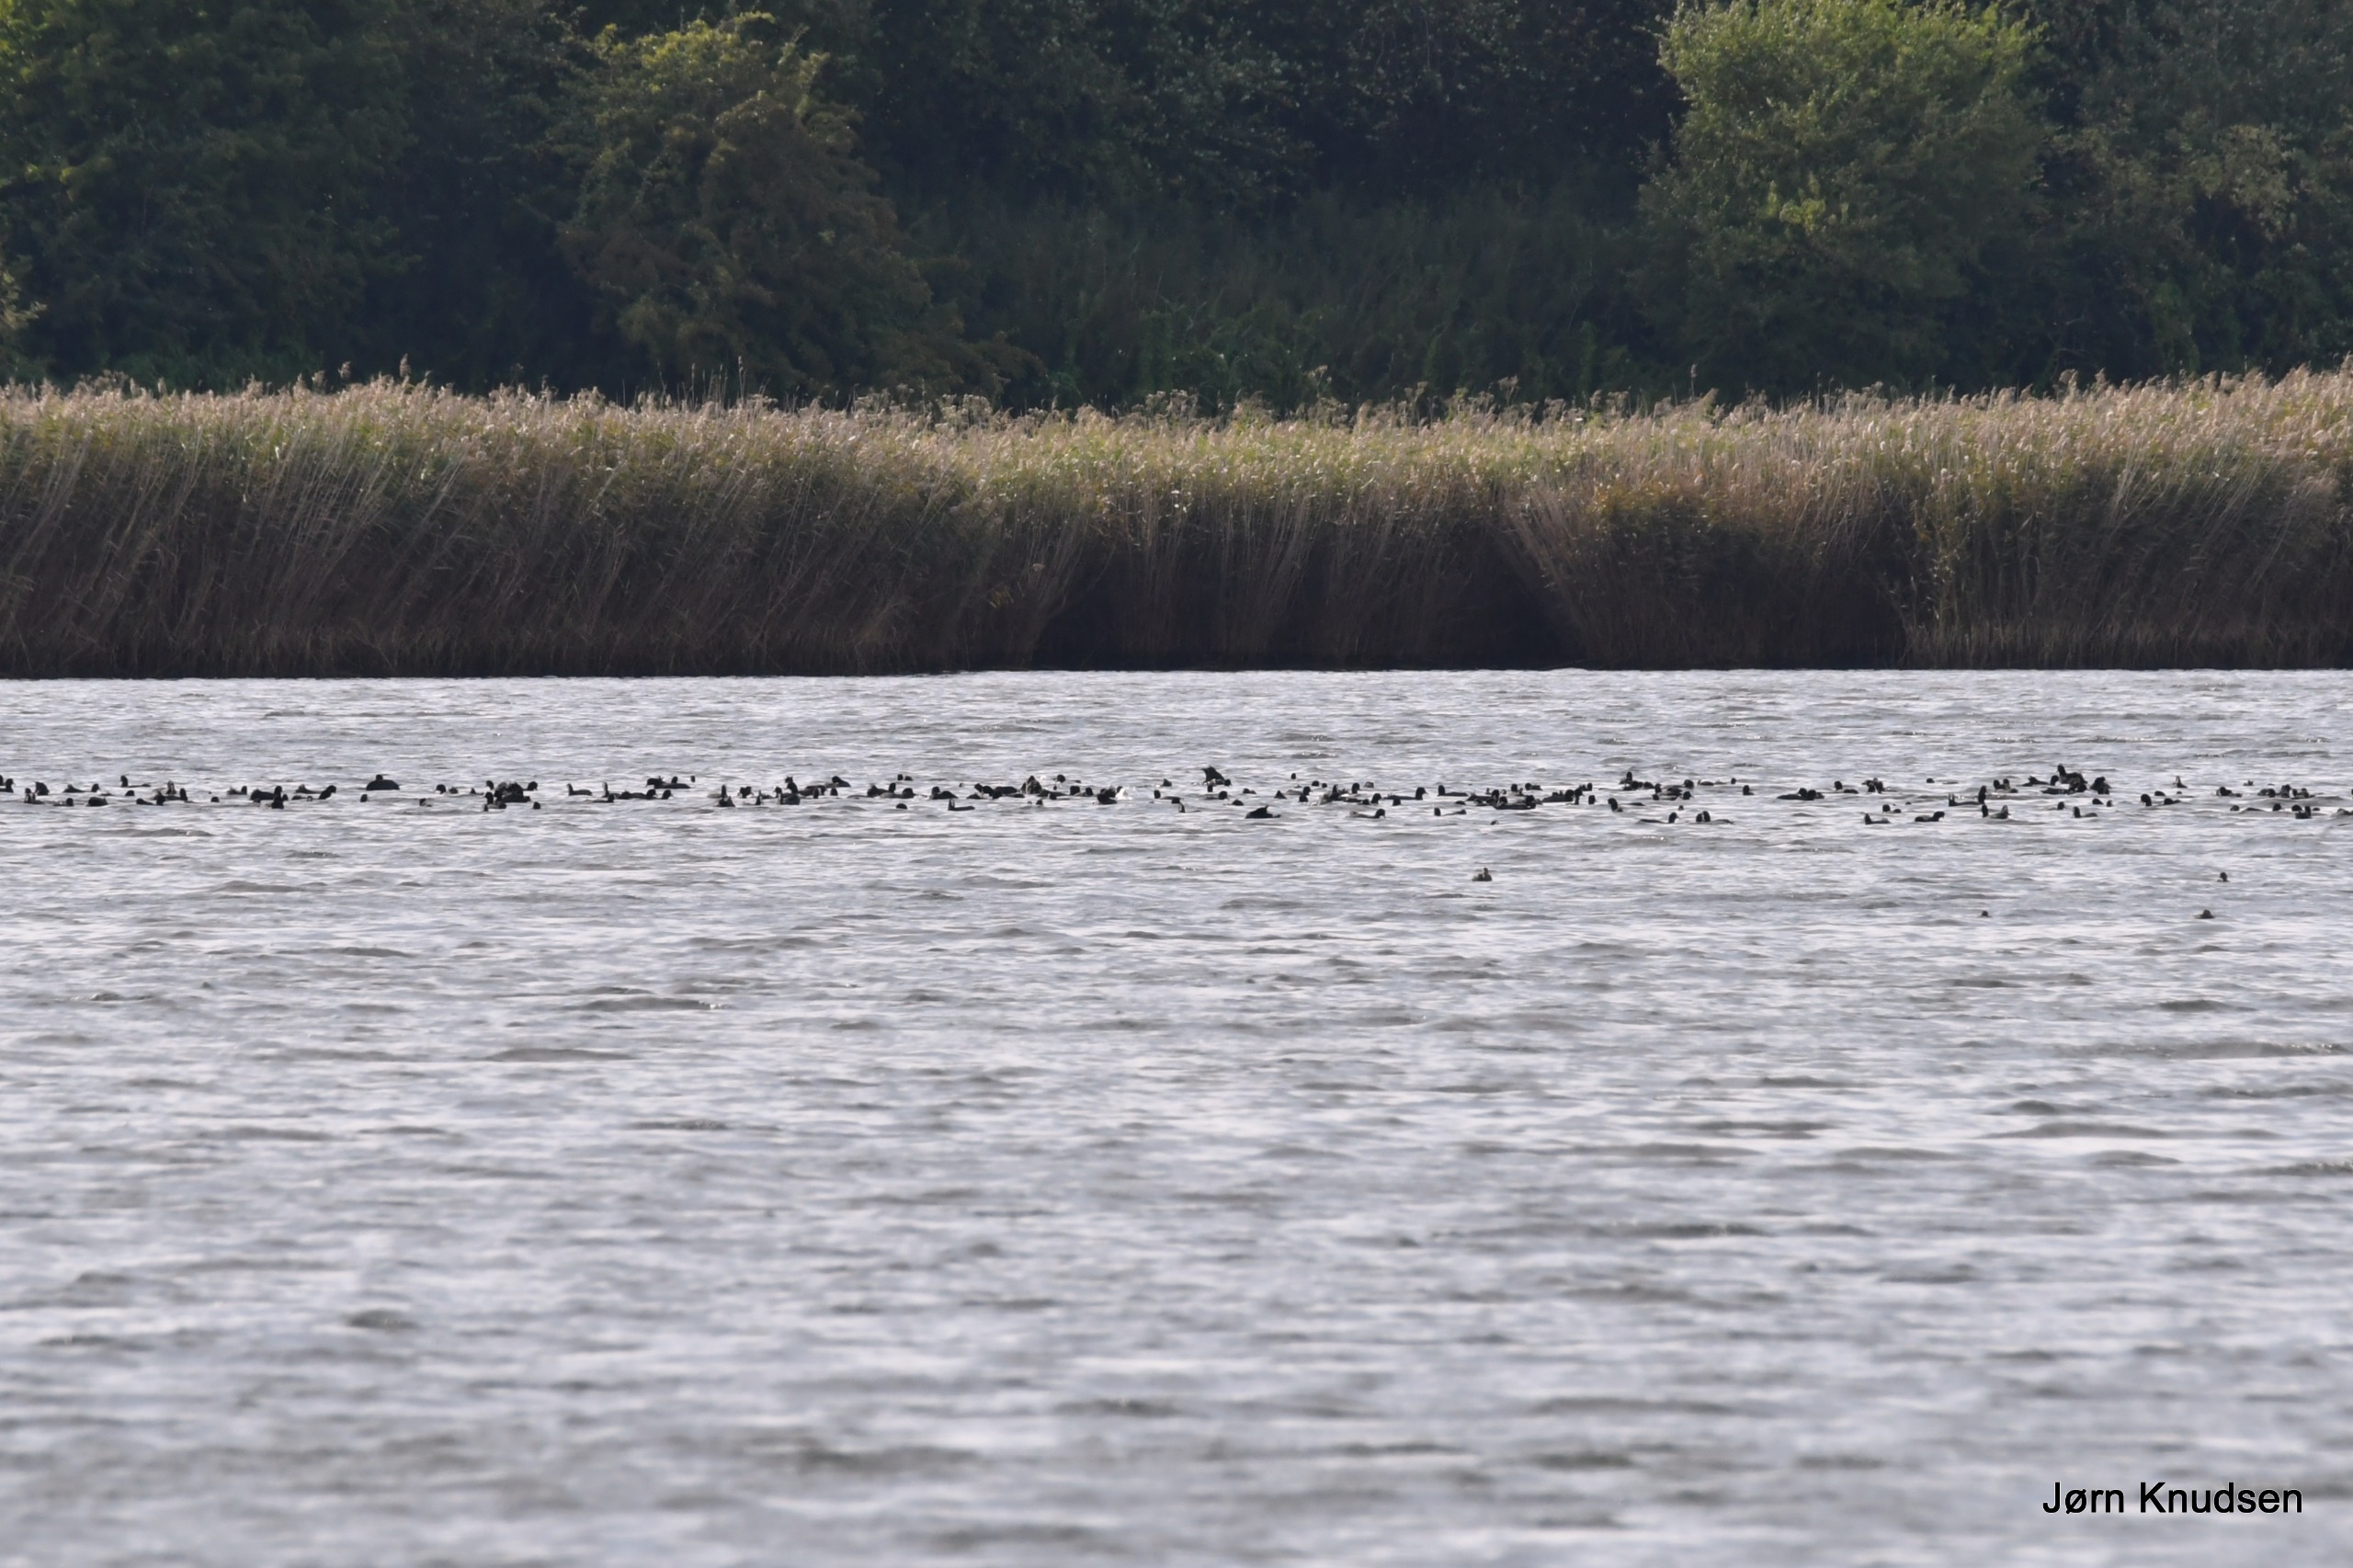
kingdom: Animalia
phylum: Chordata
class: Aves
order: Gruiformes
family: Rallidae
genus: Fulica
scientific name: Fulica atra
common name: Blishøne
